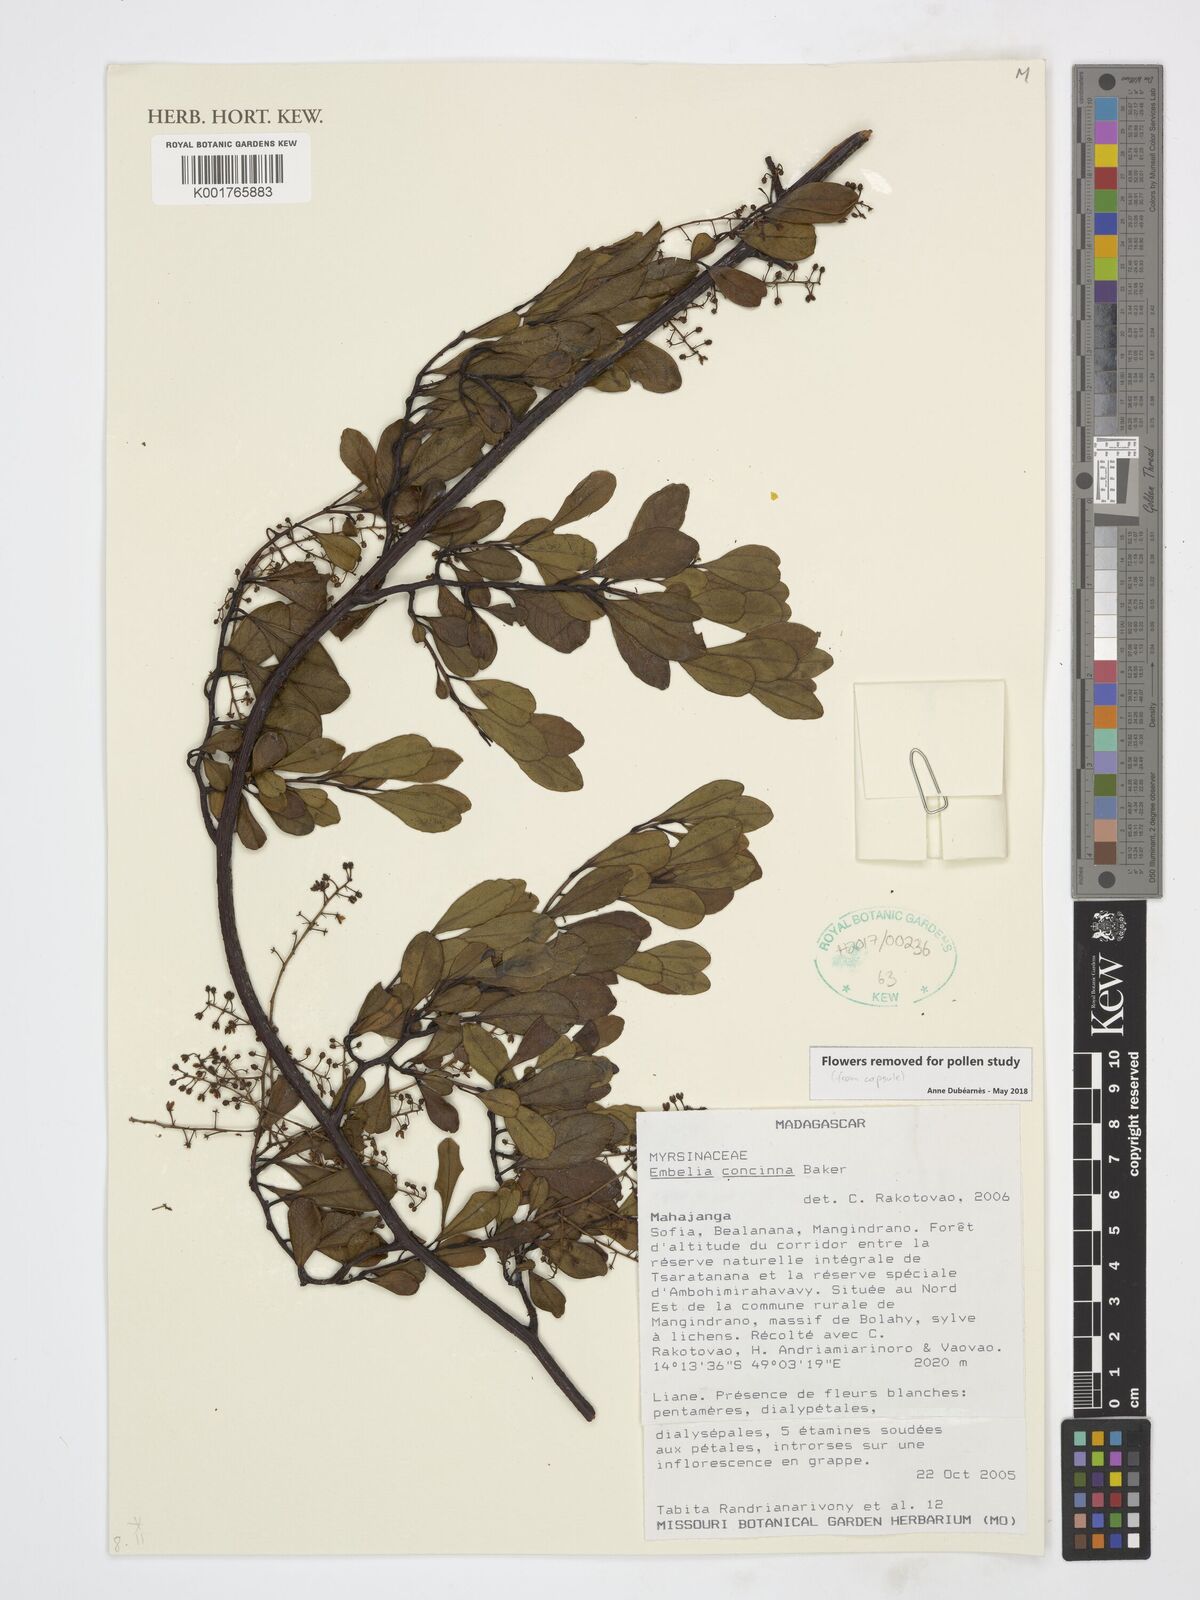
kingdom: Plantae
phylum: Tracheophyta
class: Magnoliopsida
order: Ericales
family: Primulaceae
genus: Embelia
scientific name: Embelia concinna
